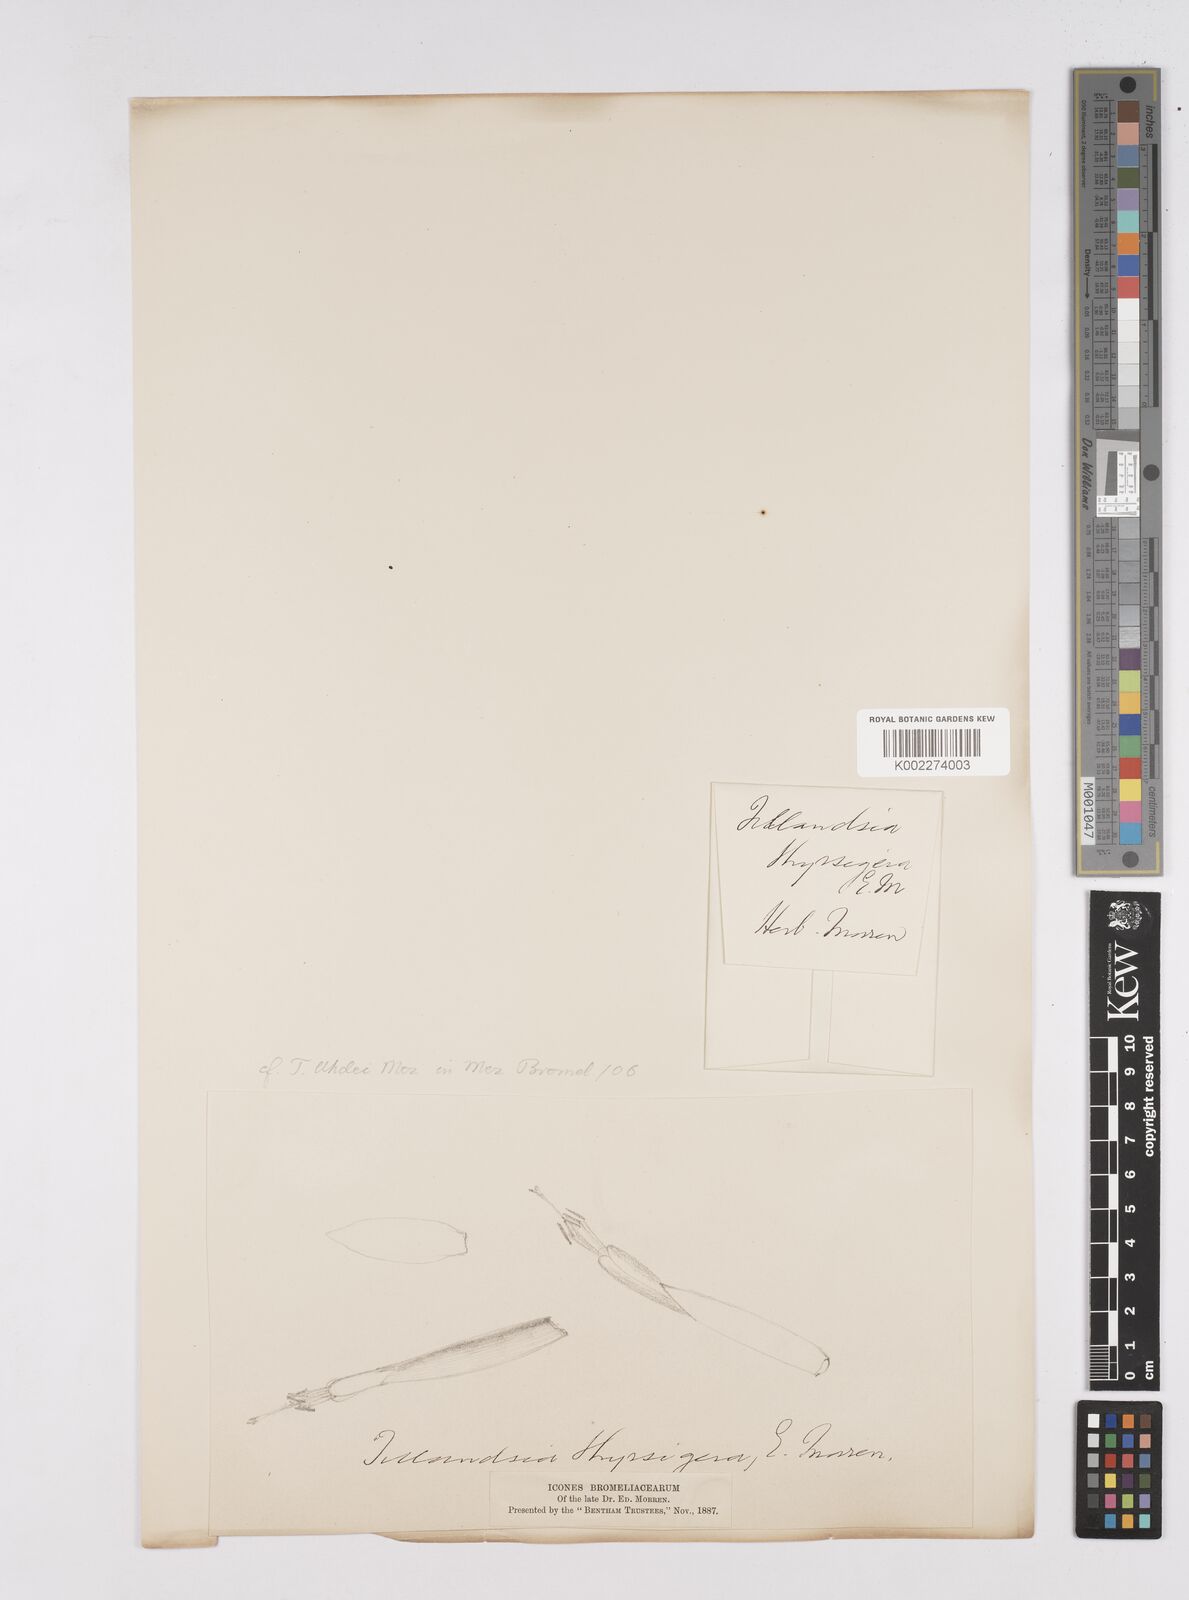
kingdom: Plantae
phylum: Tracheophyta
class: Liliopsida
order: Poales
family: Bromeliaceae
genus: Tillandsia
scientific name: Tillandsia thyrsigera
